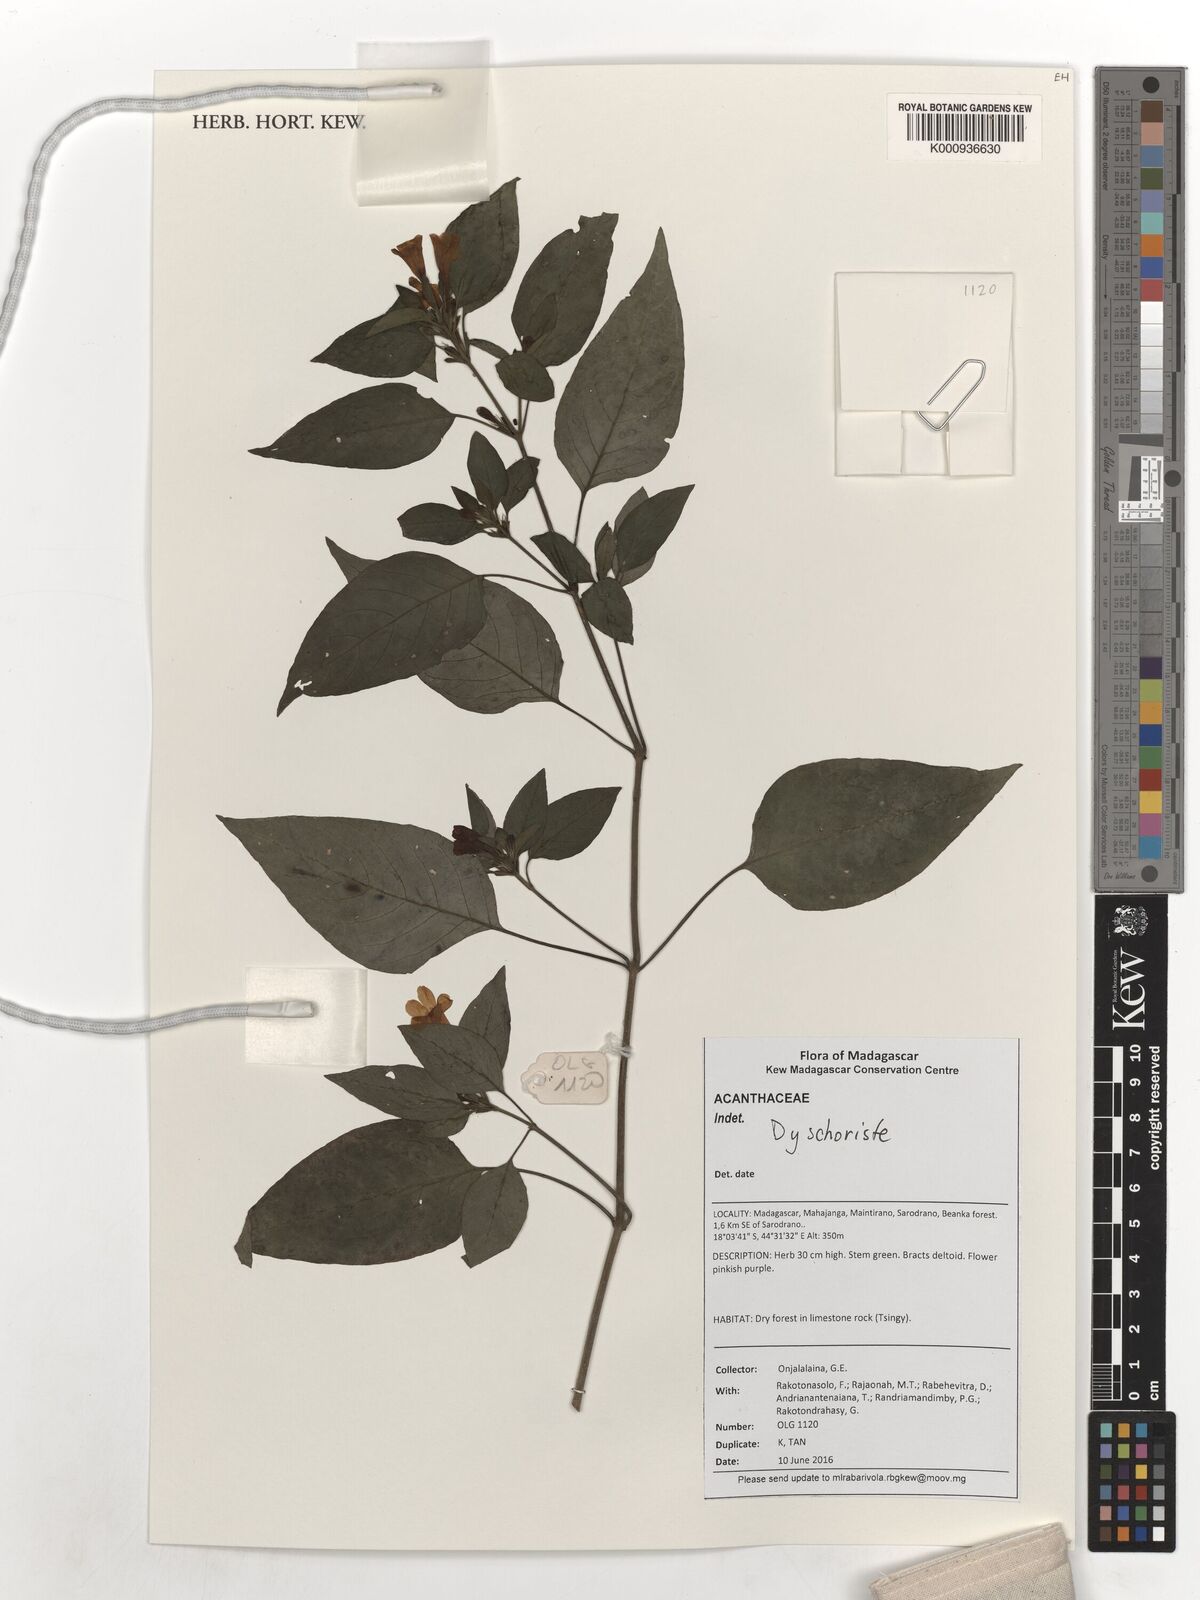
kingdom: Plantae
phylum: Tracheophyta
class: Magnoliopsida
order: Lamiales
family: Acanthaceae
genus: Dyschoriste
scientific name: Dyschoriste
